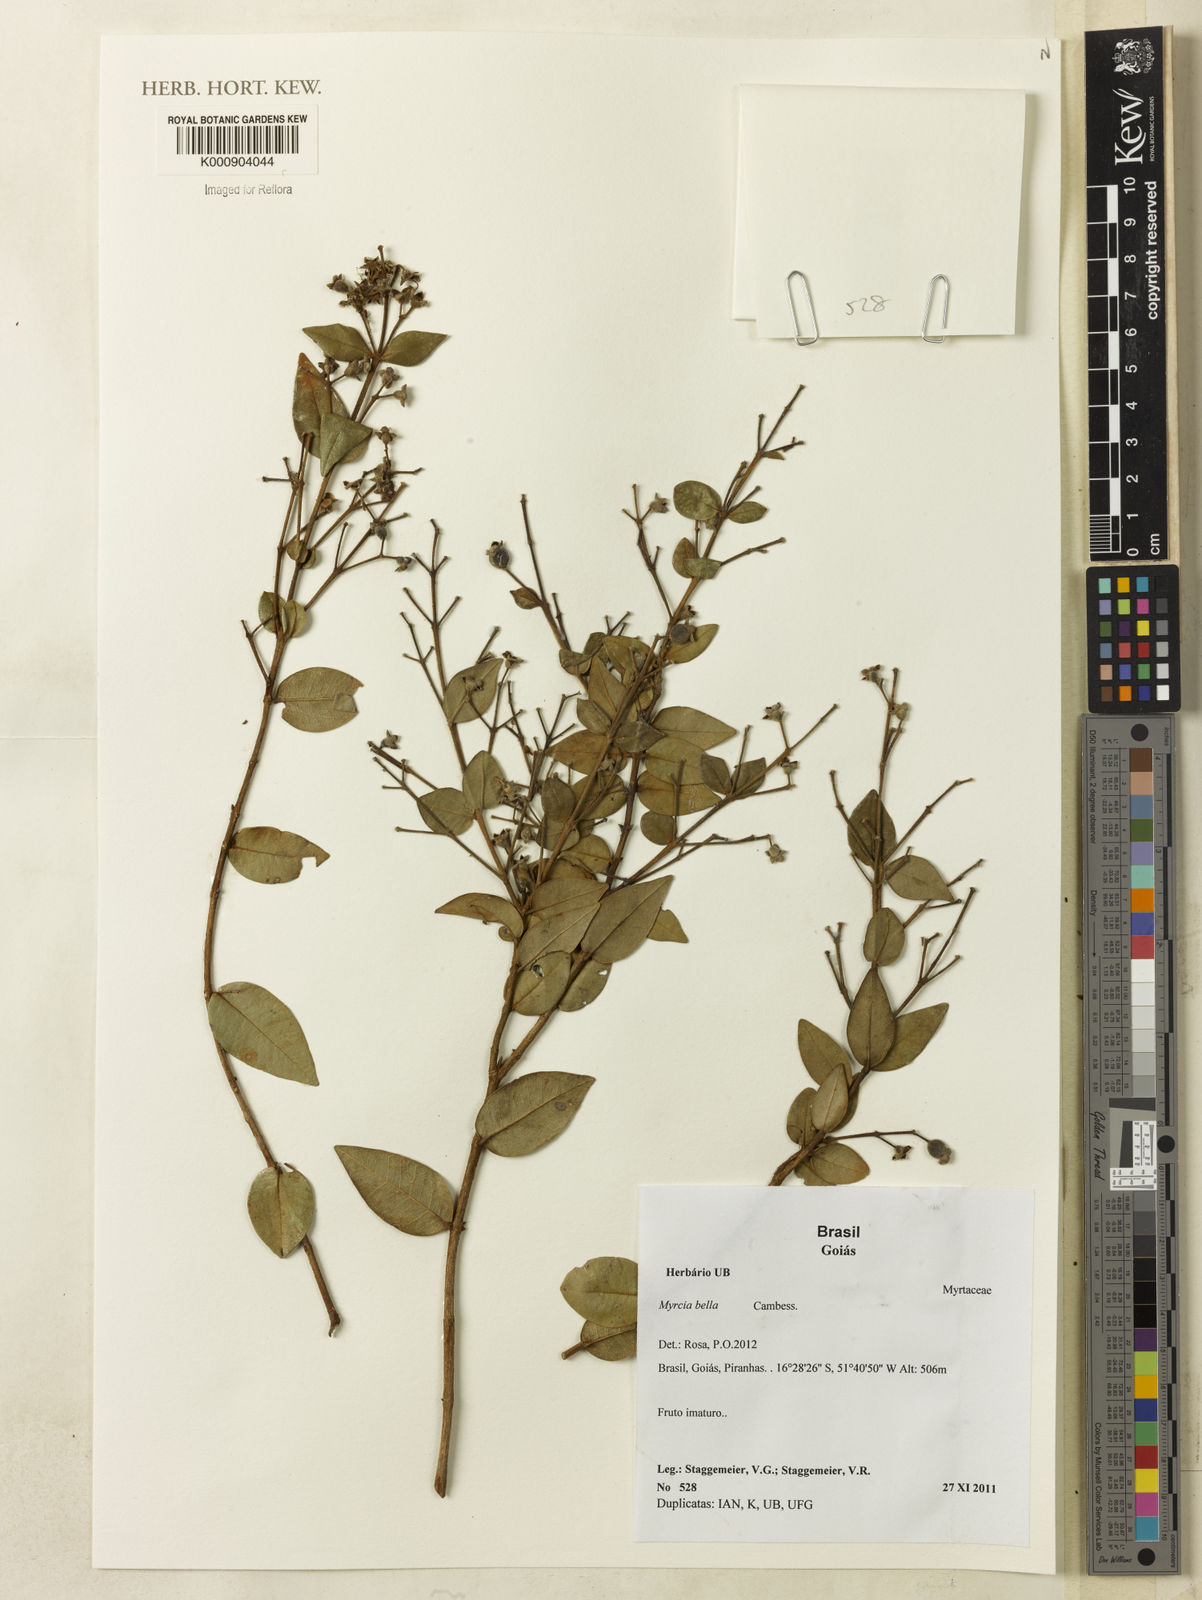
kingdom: Plantae
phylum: Tracheophyta
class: Magnoliopsida
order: Myrtales
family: Myrtaceae
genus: Myrcia
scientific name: Myrcia bella
